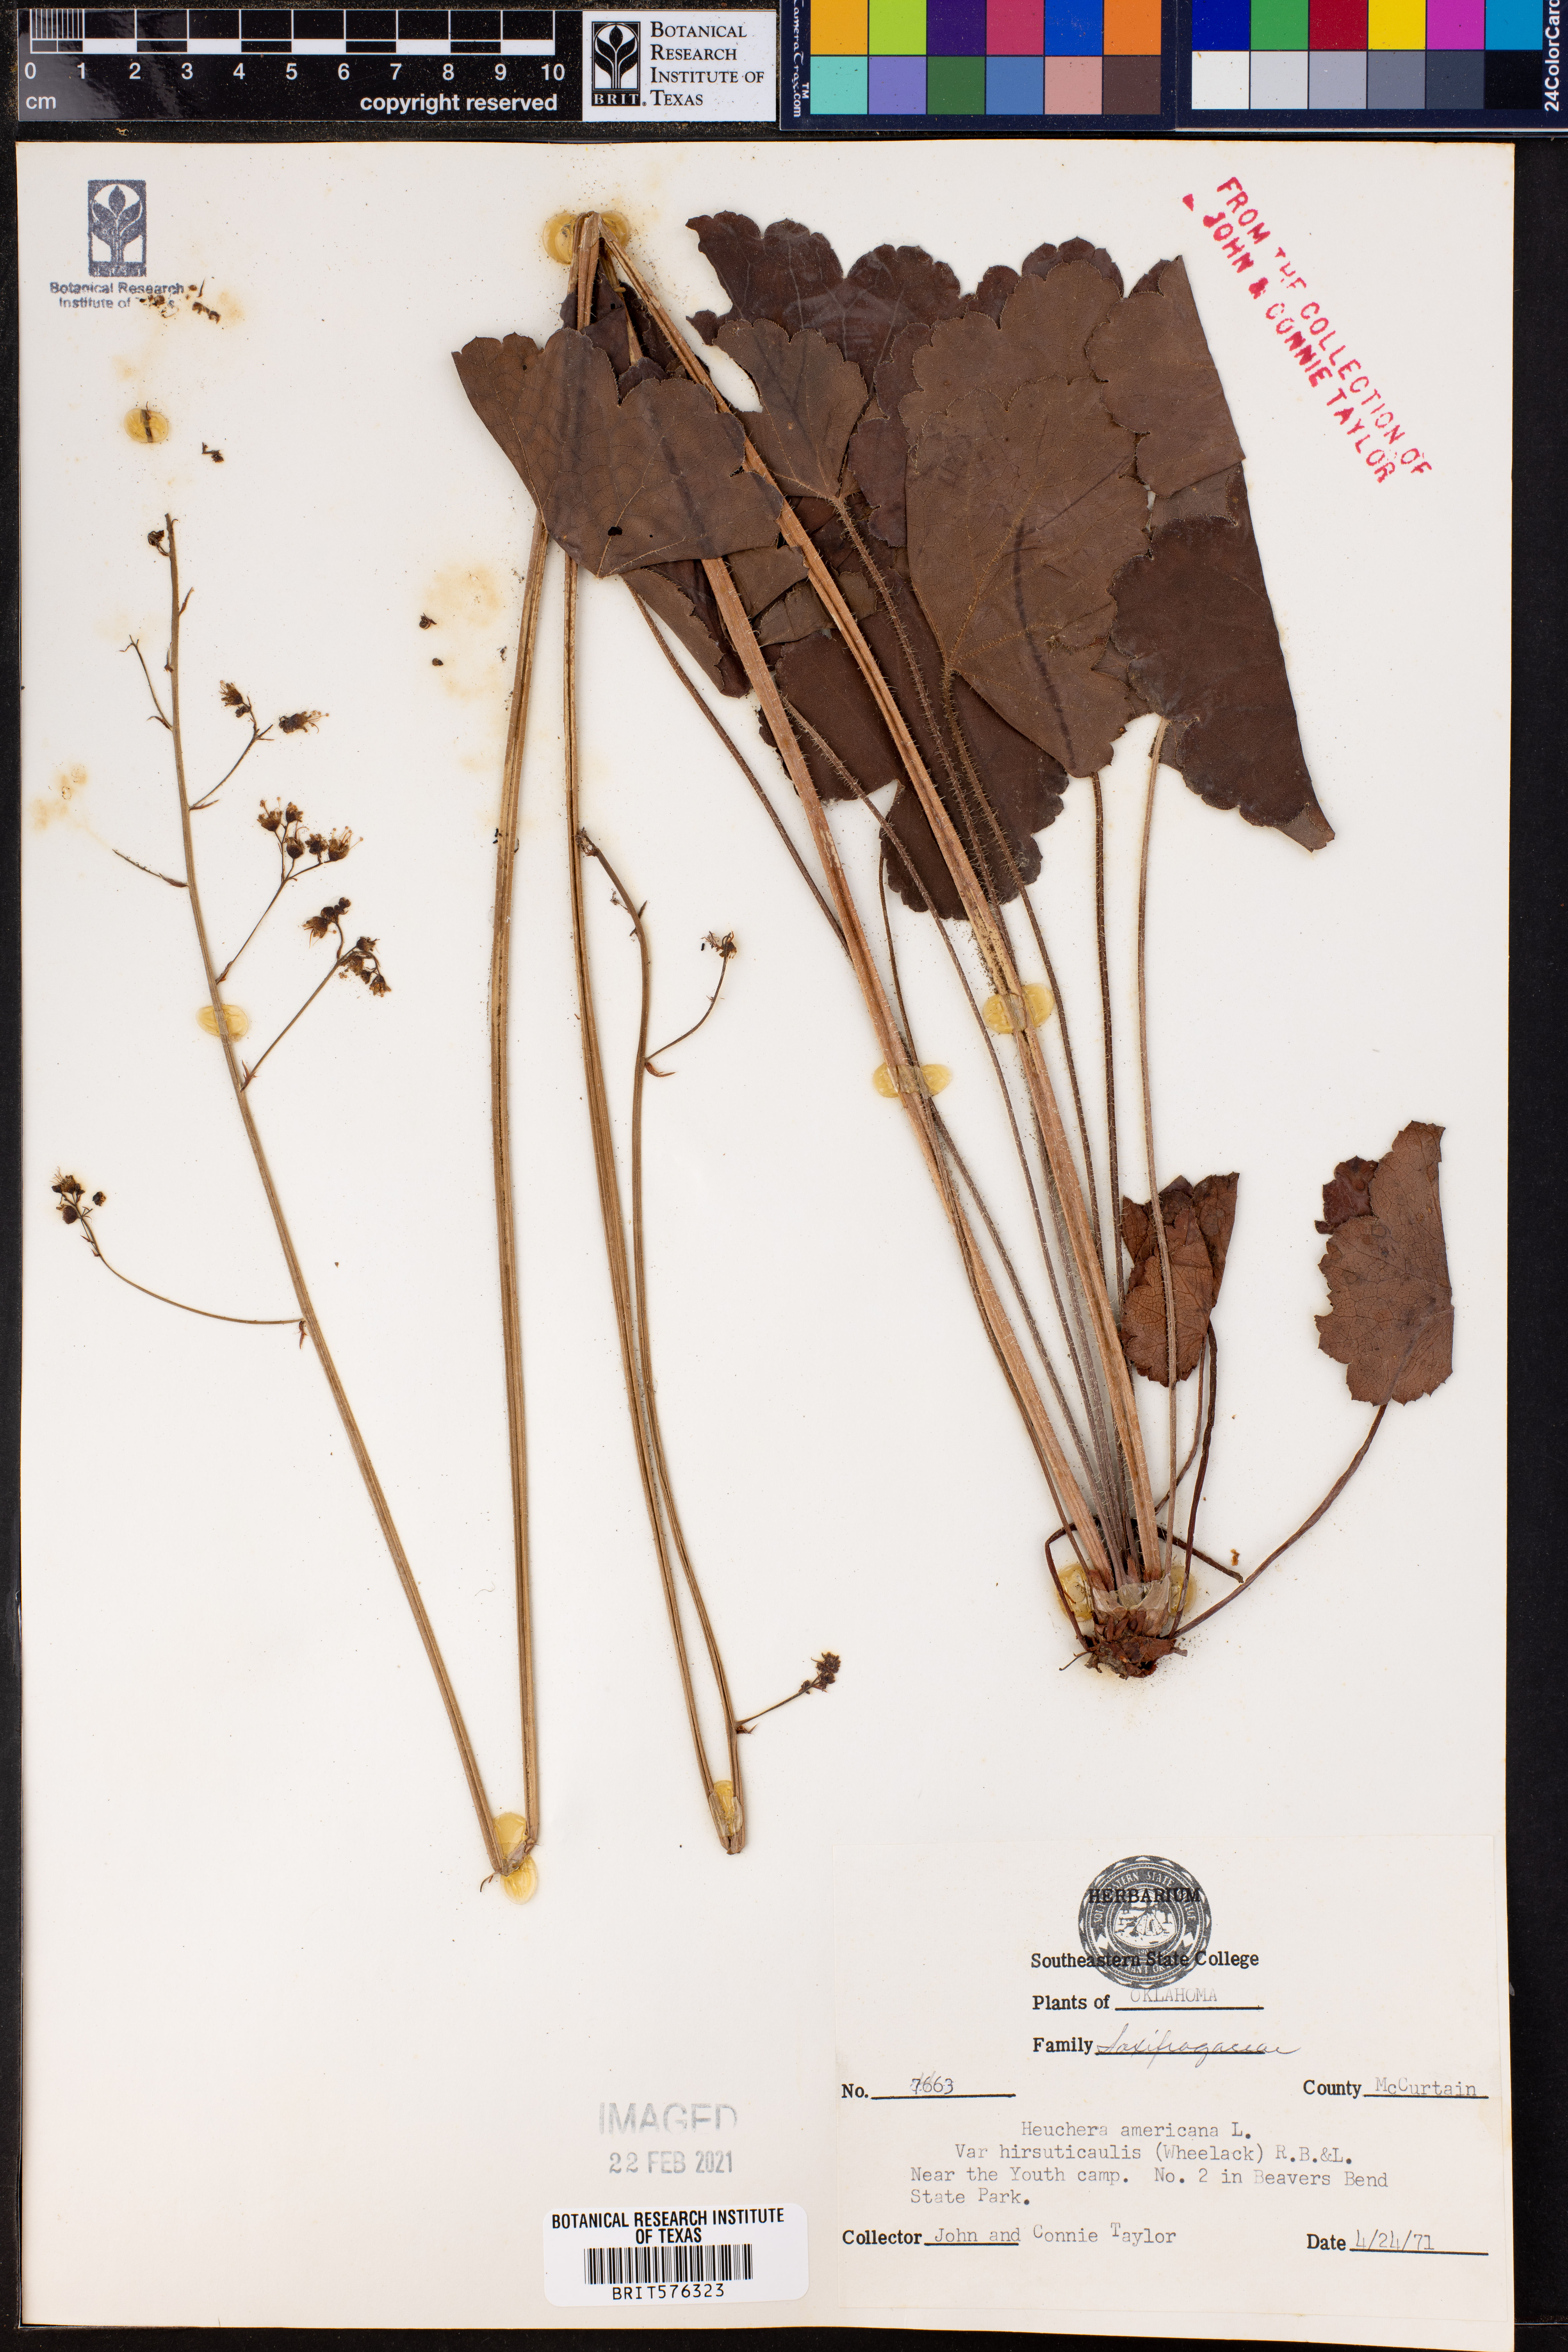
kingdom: Plantae
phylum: Tracheophyta
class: Magnoliopsida
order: Saxifragales
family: Saxifragaceae
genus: Heuchera
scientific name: Heuchera americana
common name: Alumroot
